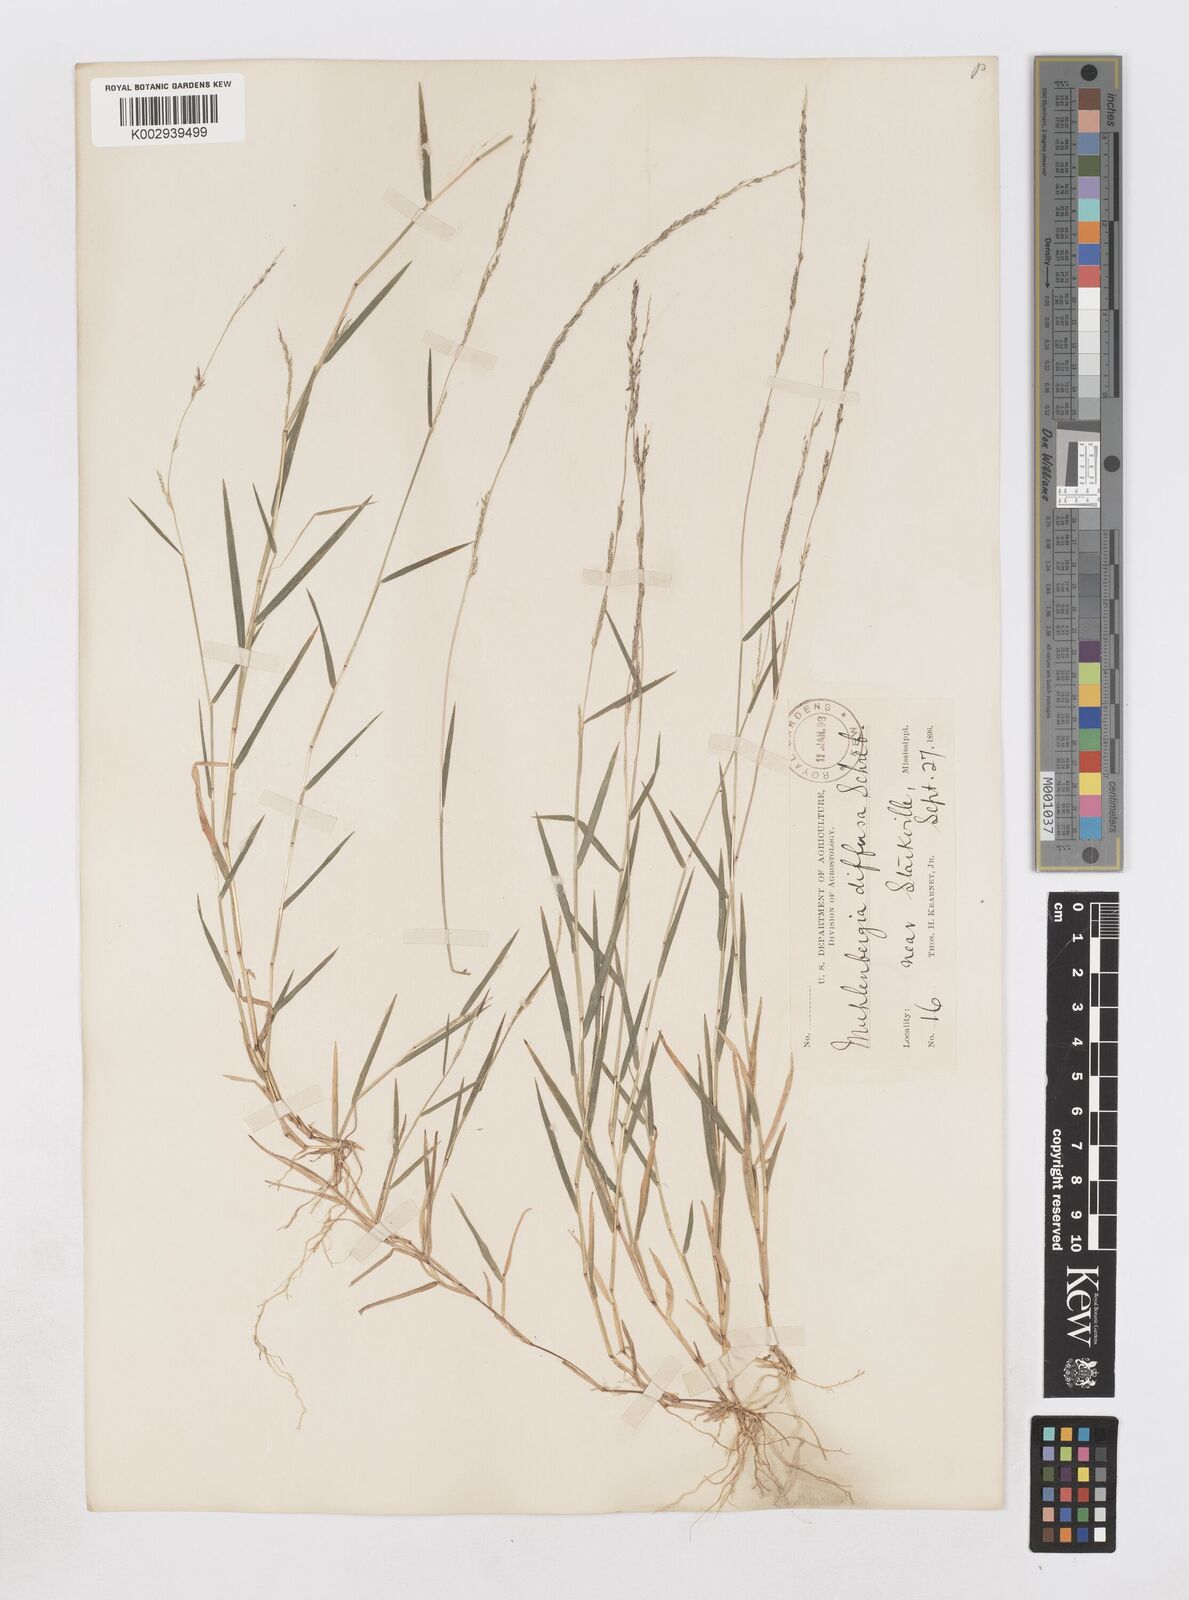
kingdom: Plantae
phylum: Tracheophyta
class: Liliopsida
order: Poales
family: Poaceae
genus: Muhlenbergia
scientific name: Muhlenbergia schreberi
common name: Nimblewill
